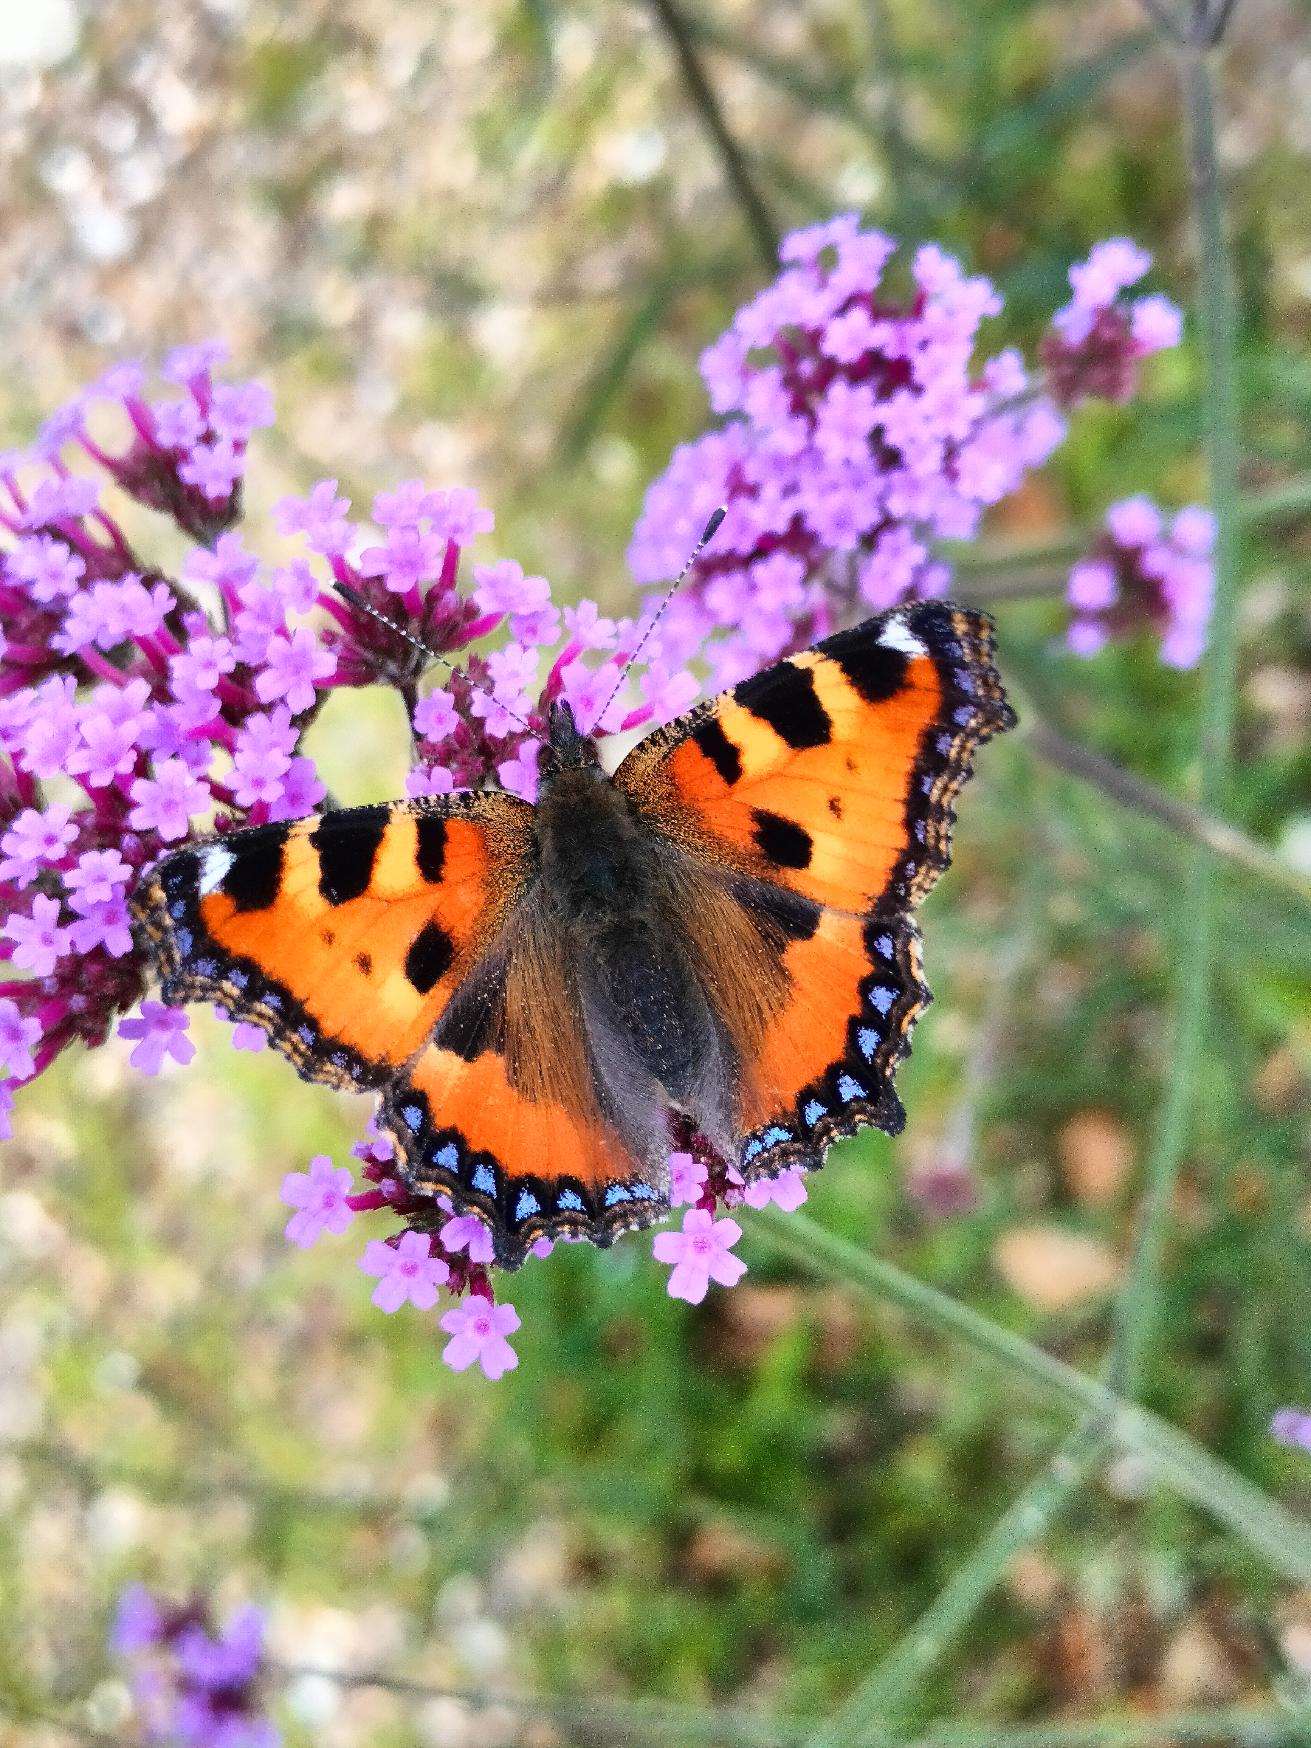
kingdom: Animalia
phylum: Arthropoda
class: Insecta
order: Lepidoptera
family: Nymphalidae
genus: Aglais
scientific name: Aglais urticae
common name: Nældens takvinge
